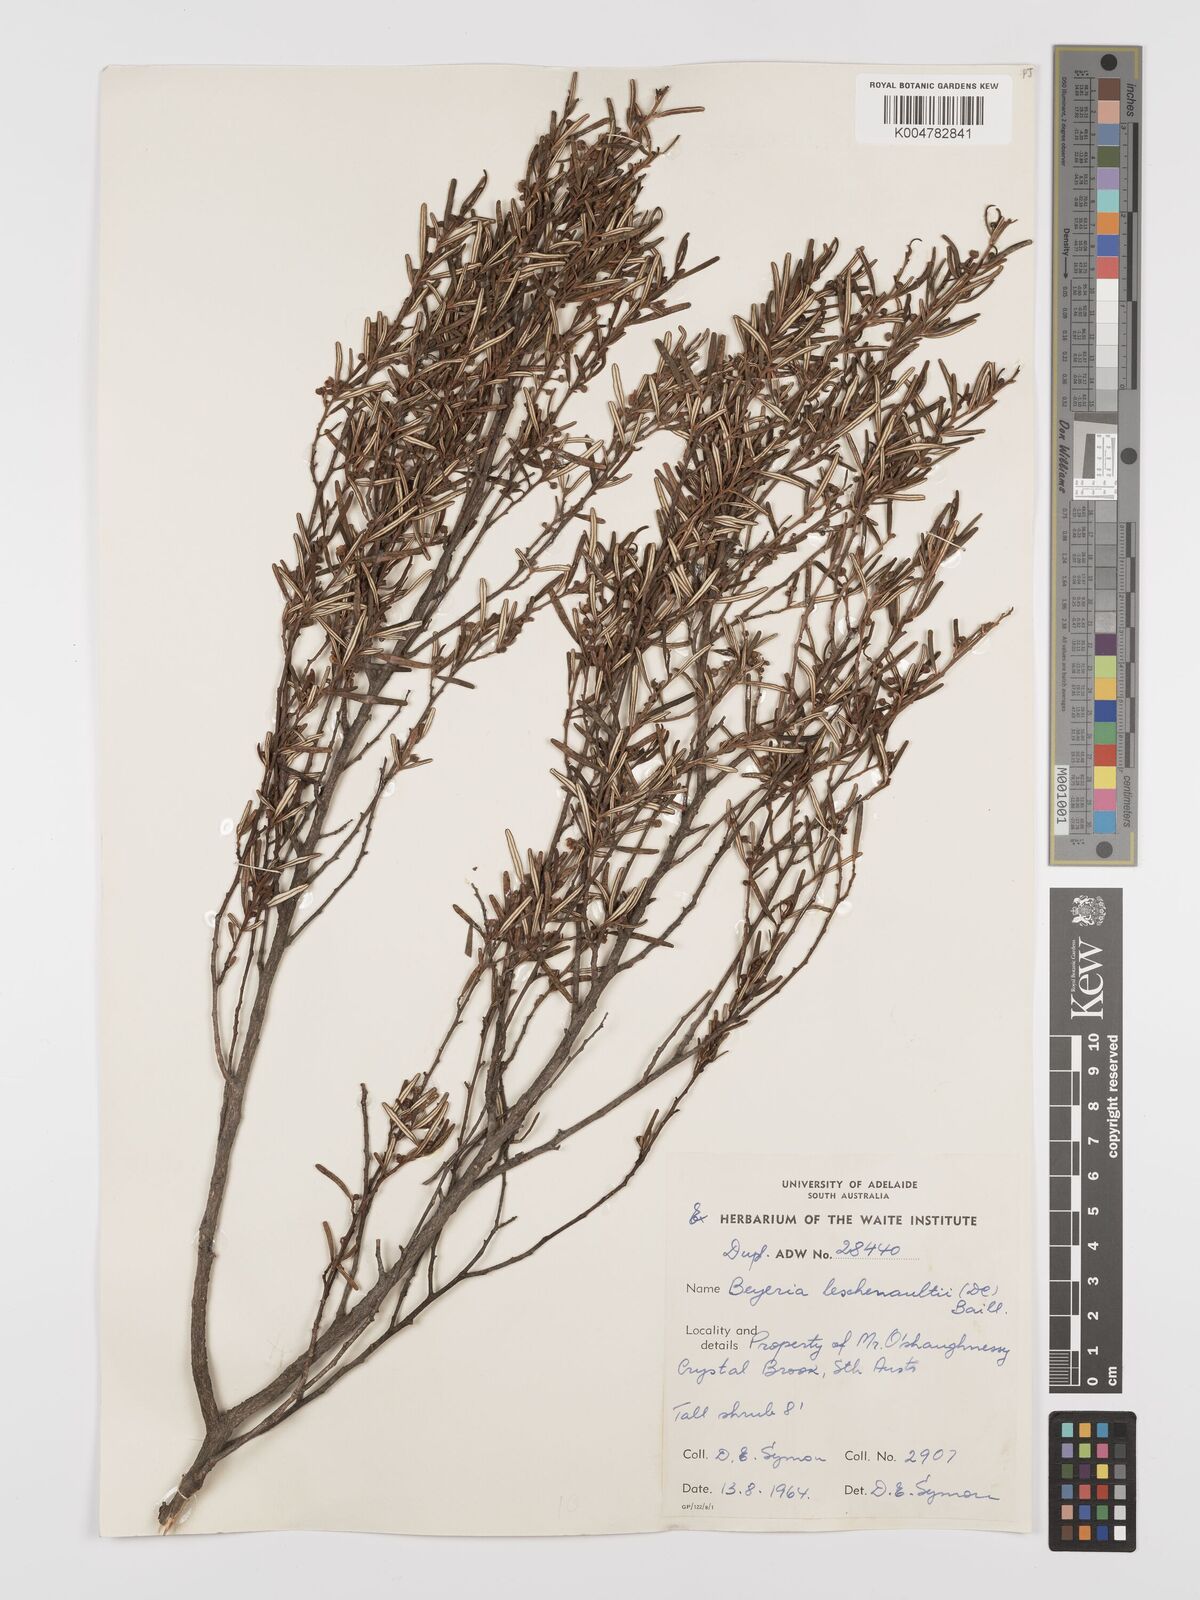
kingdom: Plantae
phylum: Tracheophyta
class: Magnoliopsida
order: Malpighiales
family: Euphorbiaceae
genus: Beyeria
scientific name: Beyeria lechenaultii
